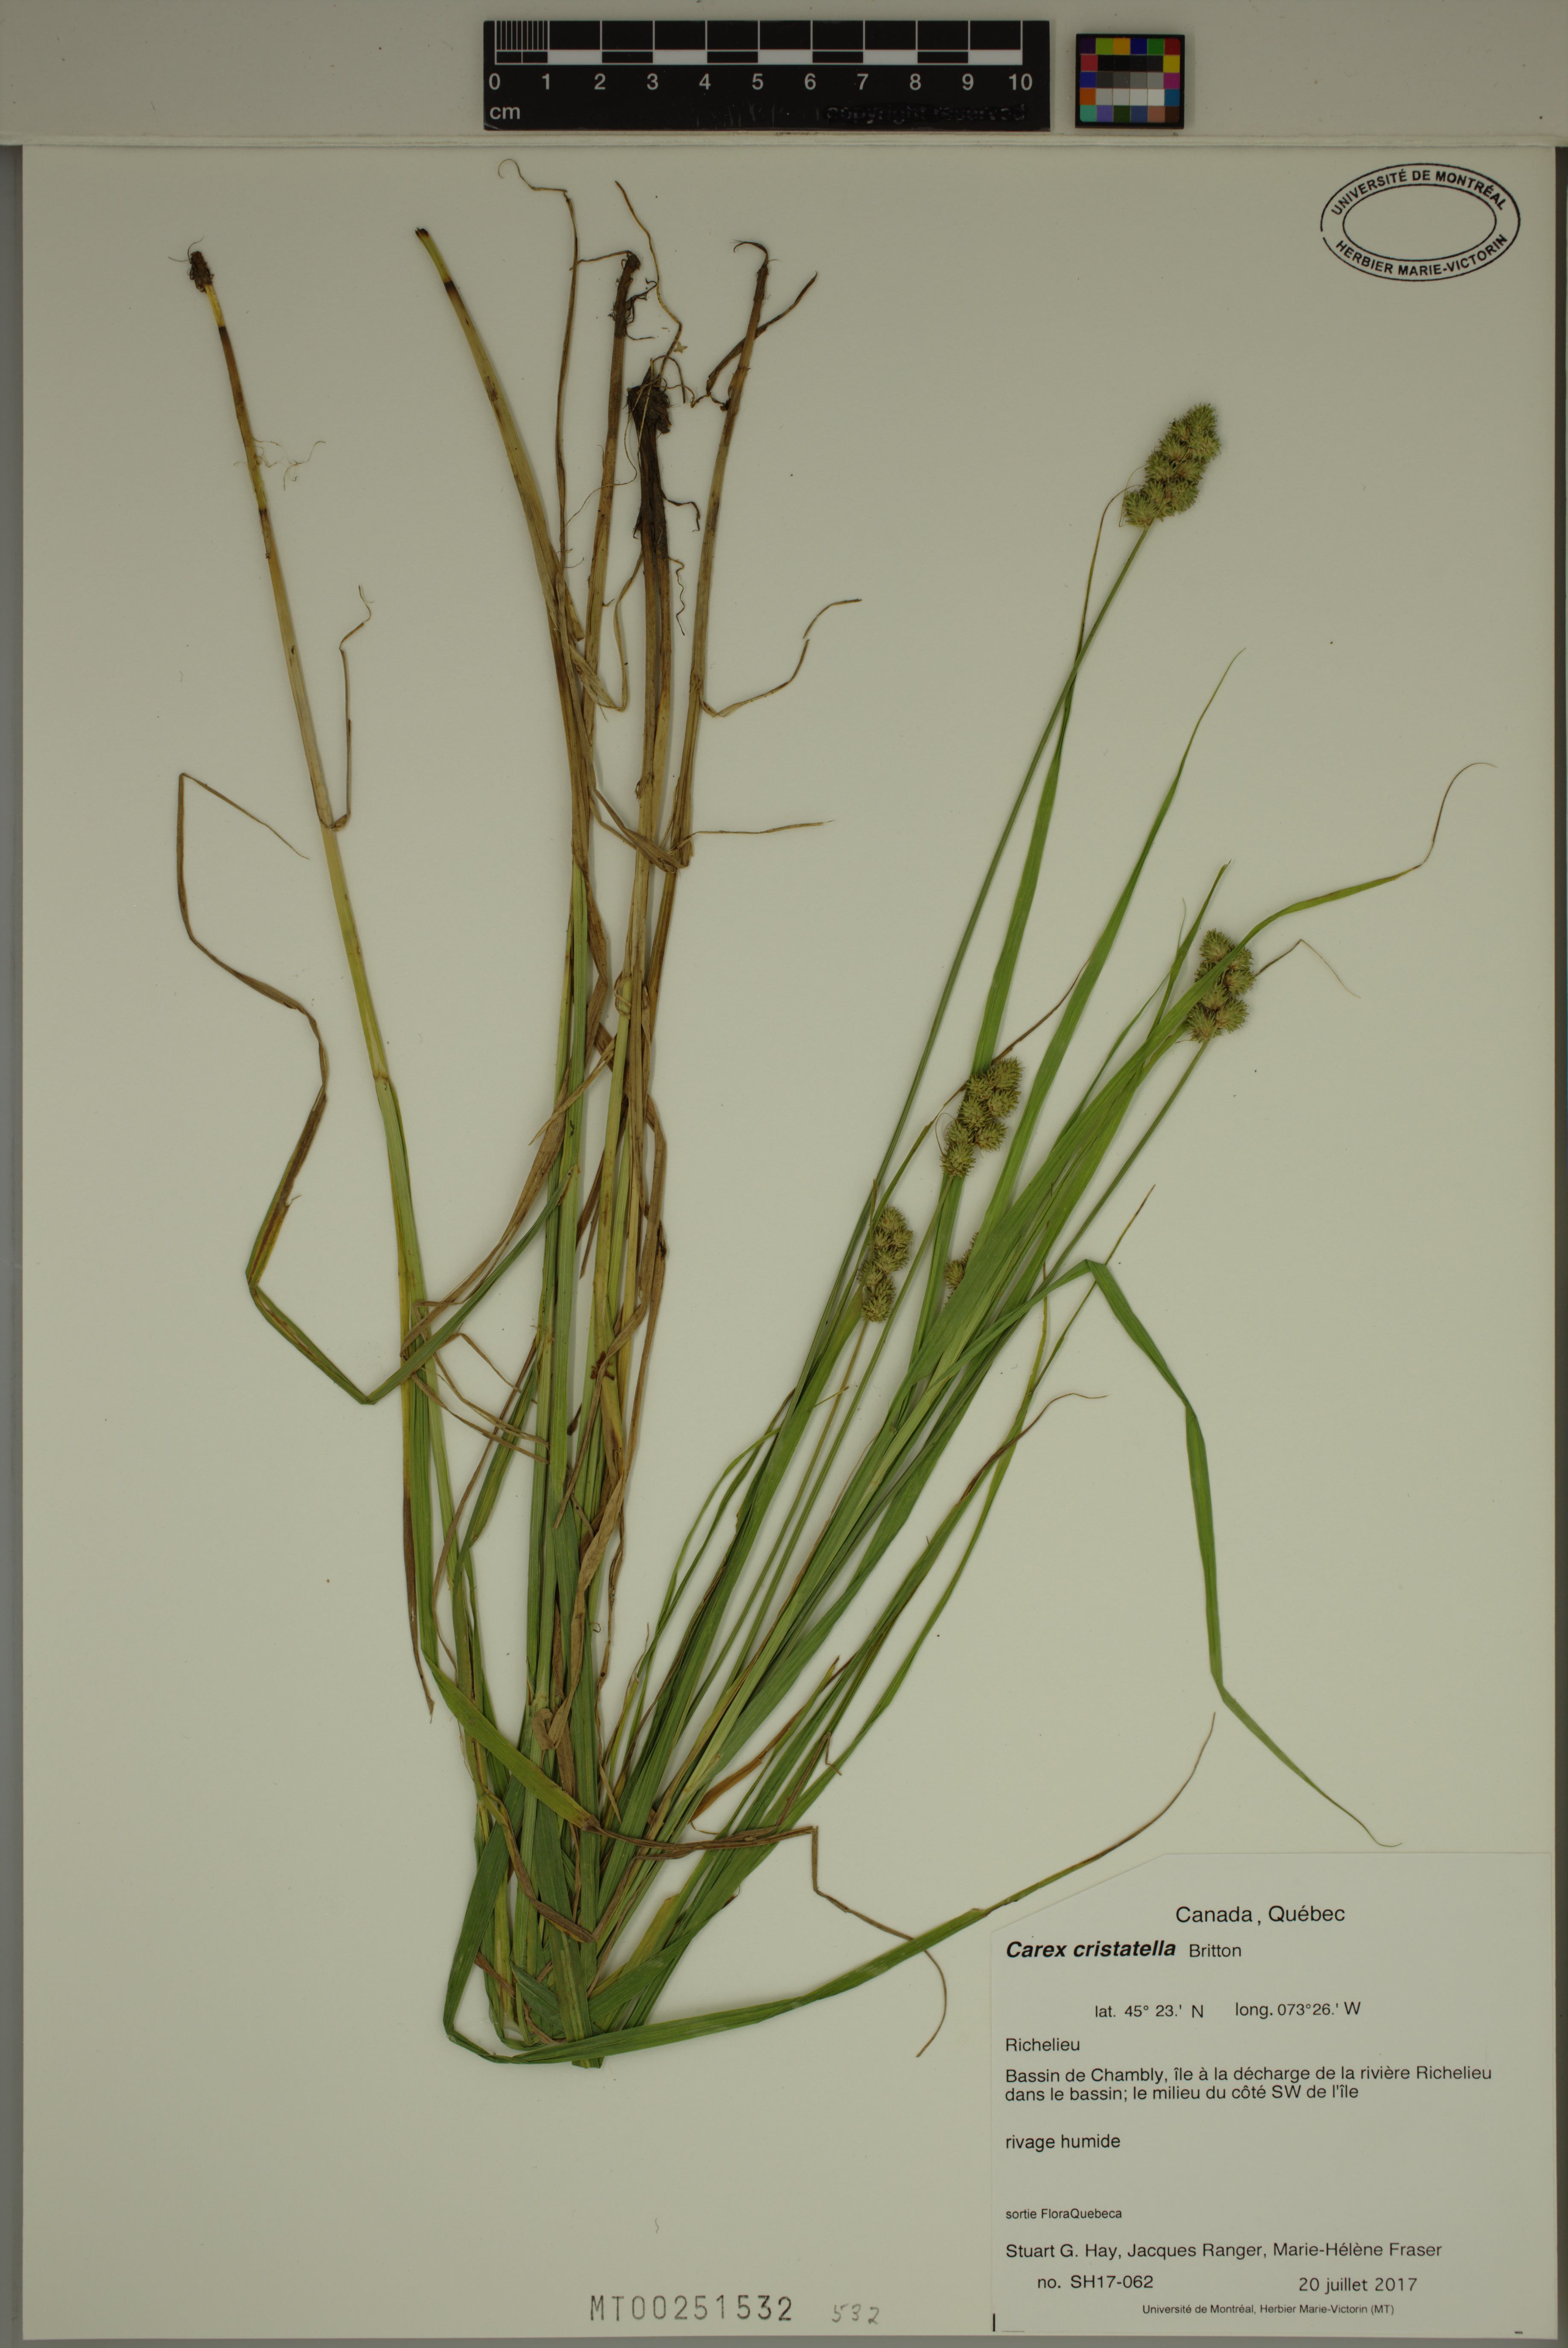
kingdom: Plantae
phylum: Tracheophyta
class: Liliopsida
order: Poales
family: Cyperaceae
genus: Carex
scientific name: Carex cristatella
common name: Crested oval sedge
